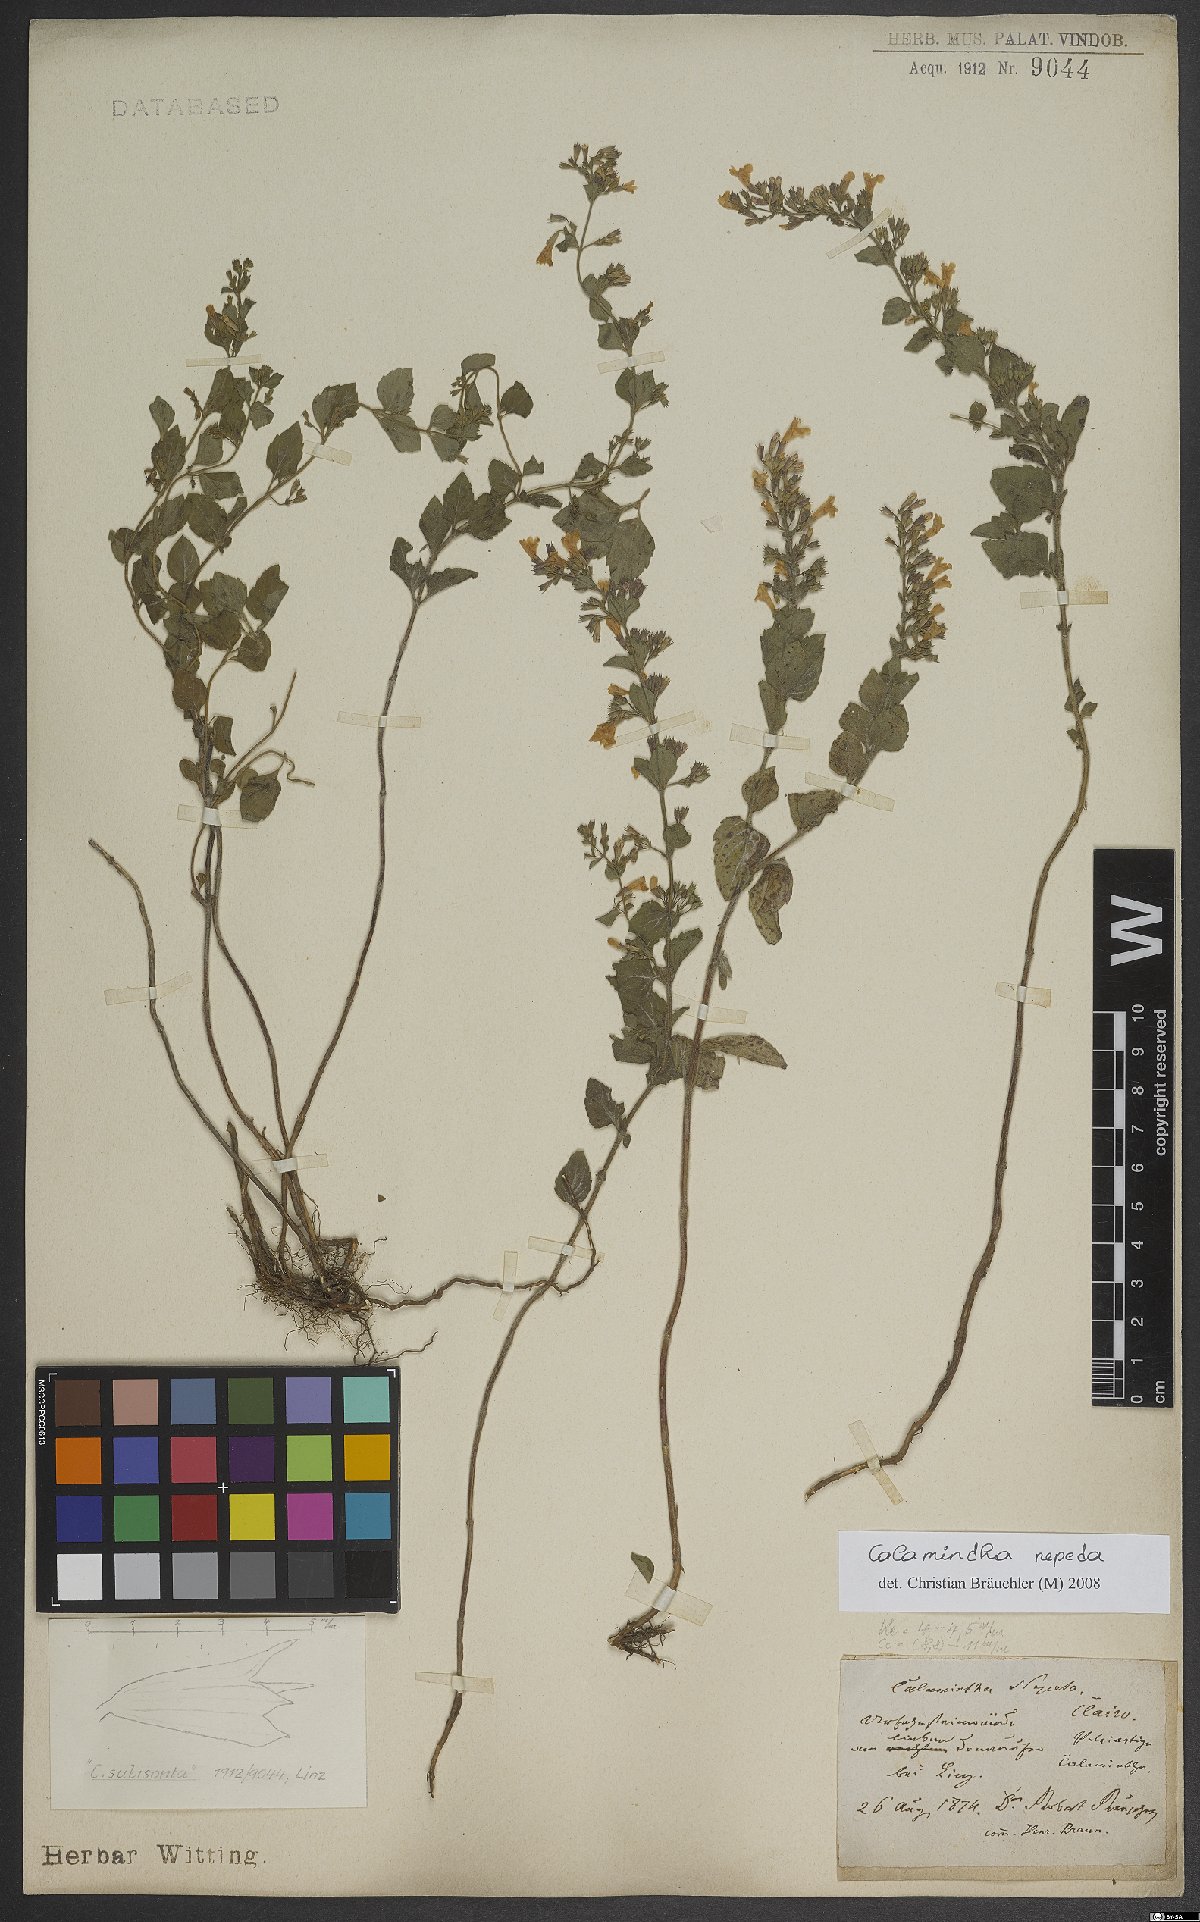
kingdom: Plantae
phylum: Tracheophyta
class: Magnoliopsida
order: Lamiales
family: Lamiaceae
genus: Clinopodium
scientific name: Clinopodium nepeta
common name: Lesser calamint
